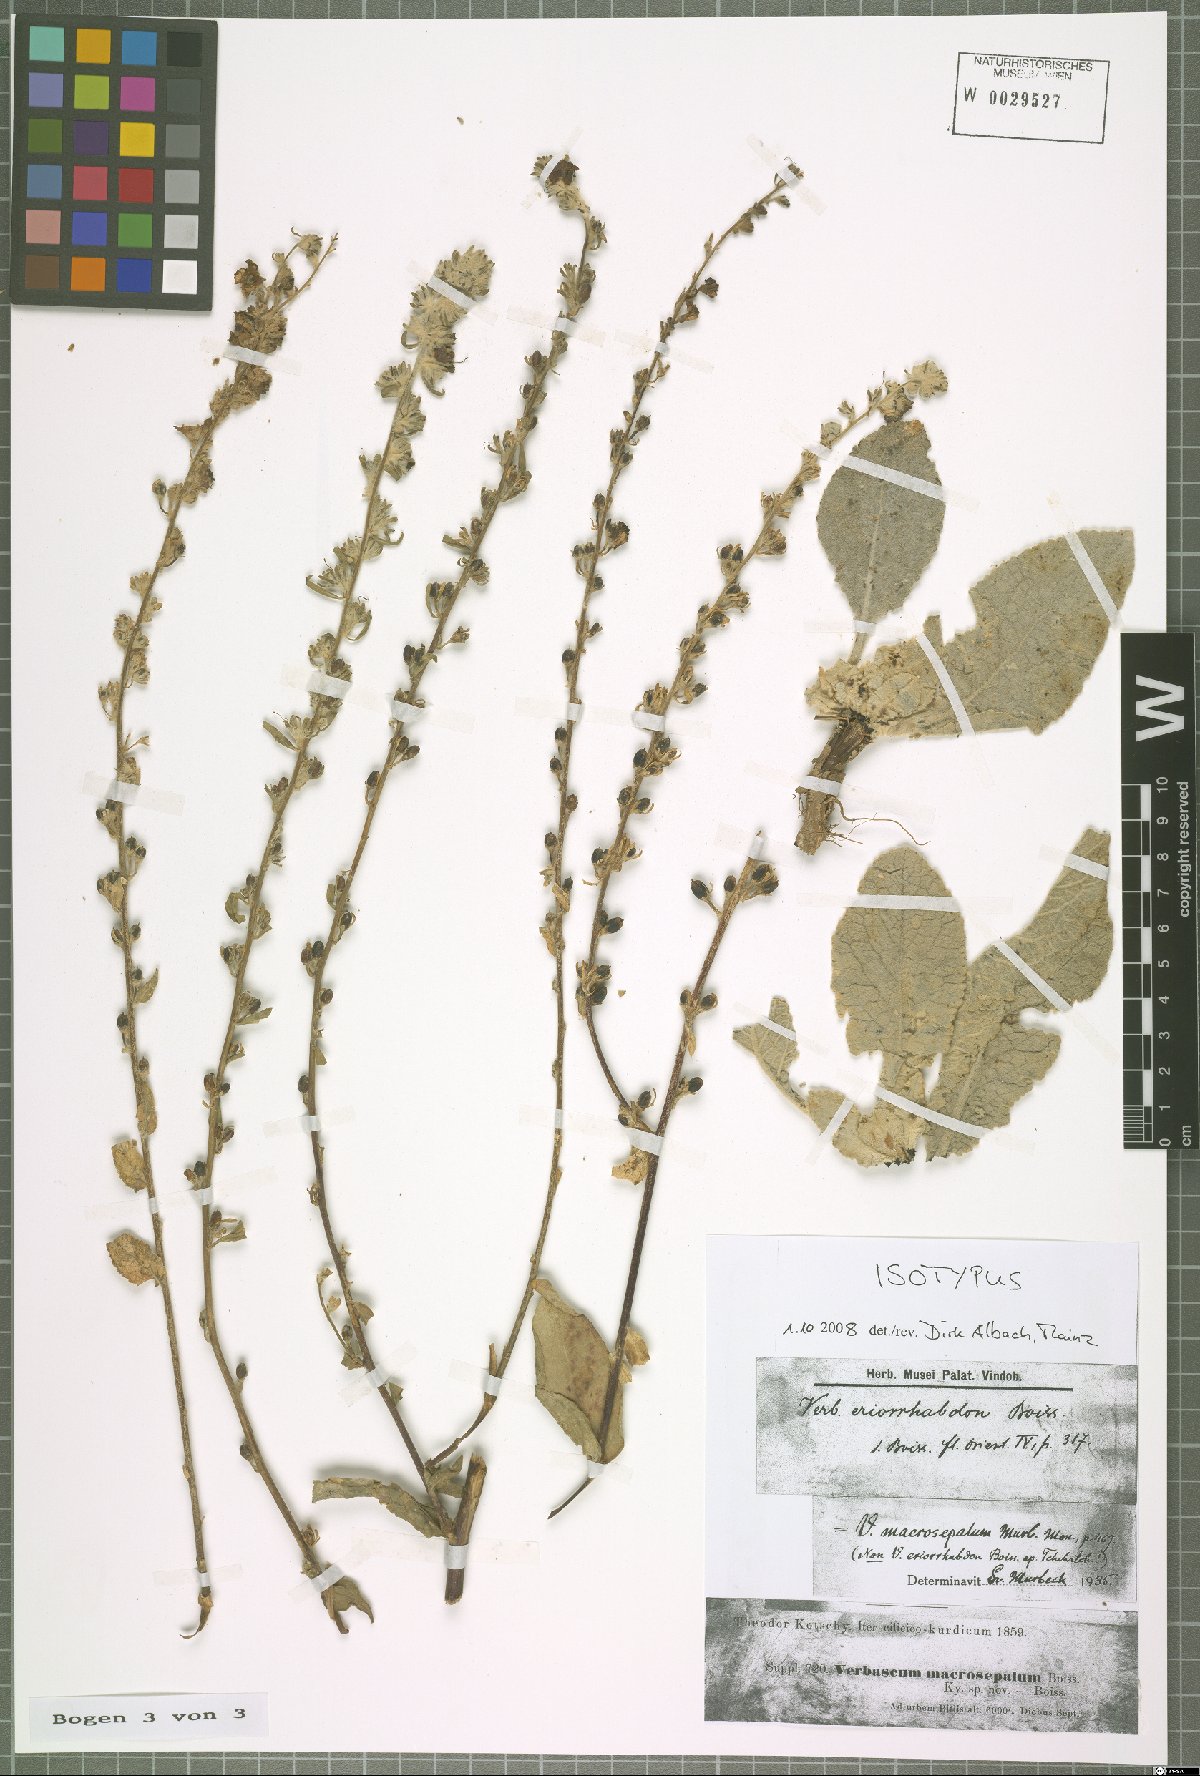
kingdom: Plantae
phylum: Tracheophyta
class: Magnoliopsida
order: Lamiales
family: Scrophulariaceae
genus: Verbascum
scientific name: Verbascum macrosepalum
